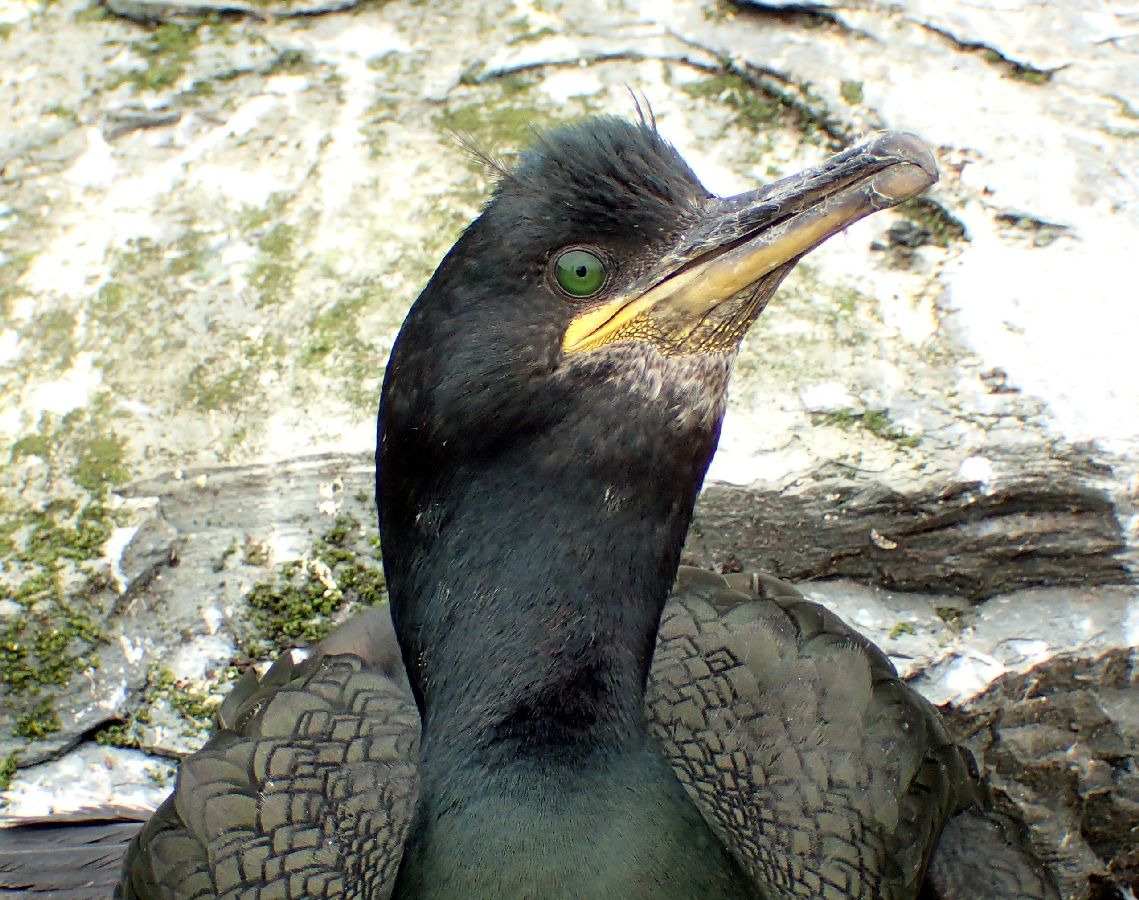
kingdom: Animalia
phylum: Chordata
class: Aves
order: Suliformes
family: Phalacrocoracidae
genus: Phalacrocorax
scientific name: Phalacrocorax aristotelis
